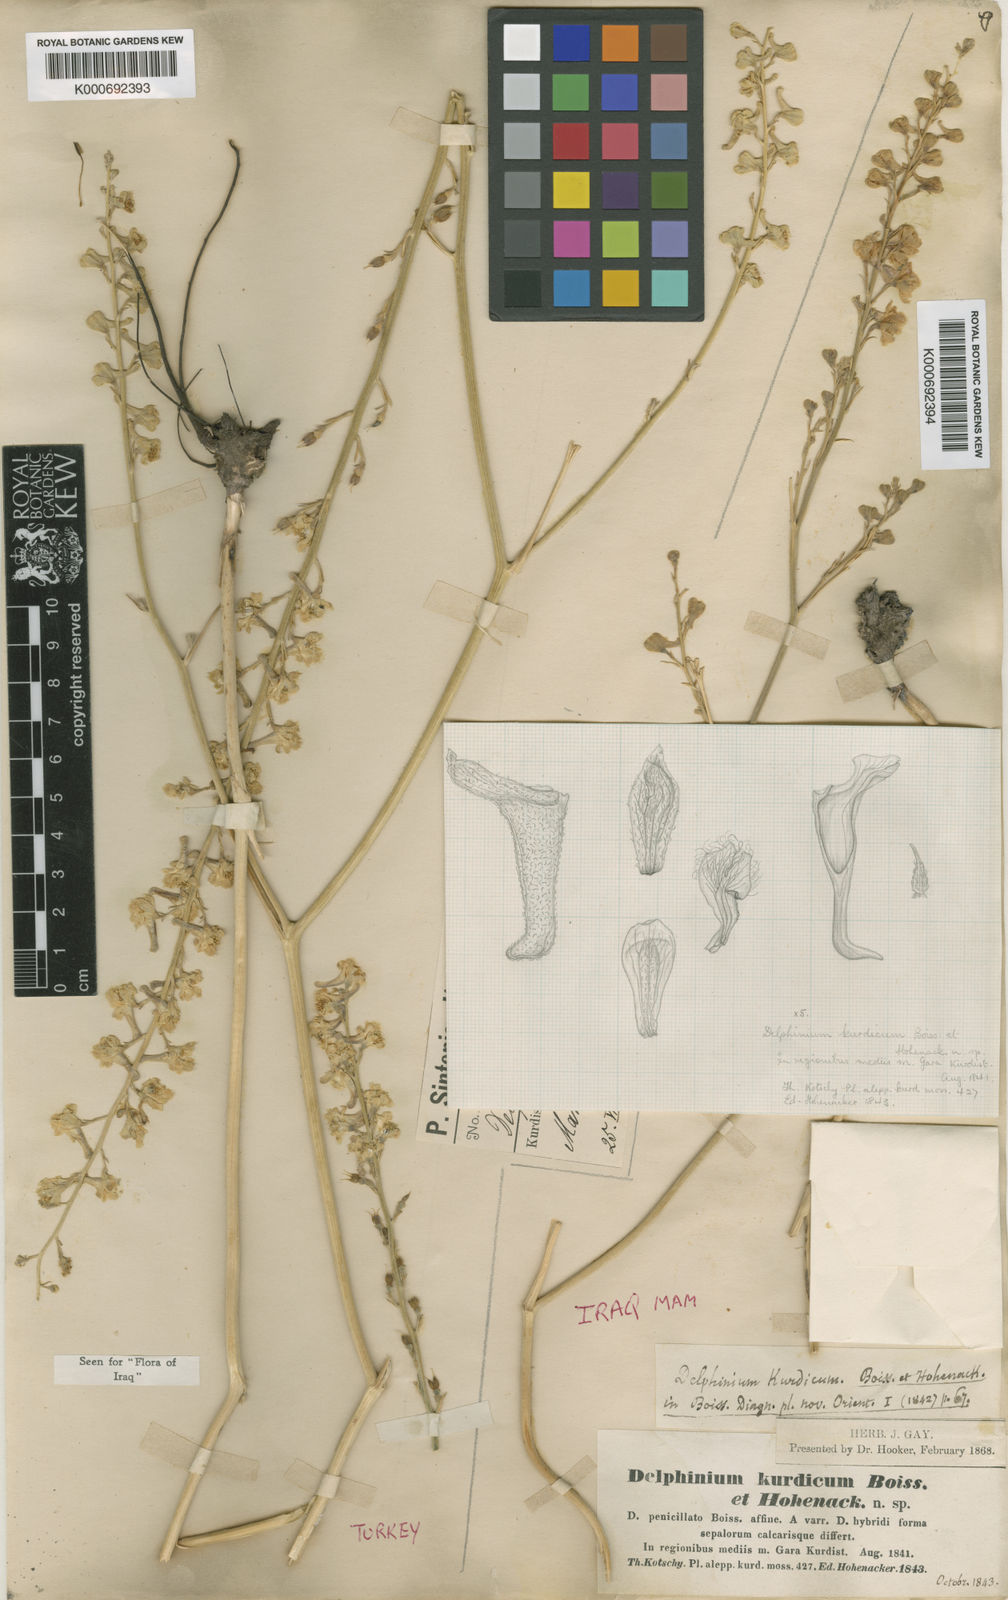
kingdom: Plantae
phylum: Tracheophyta
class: Magnoliopsida
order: Ranunculales
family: Ranunculaceae
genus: Delphinium
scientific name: Delphinium kurdicum
